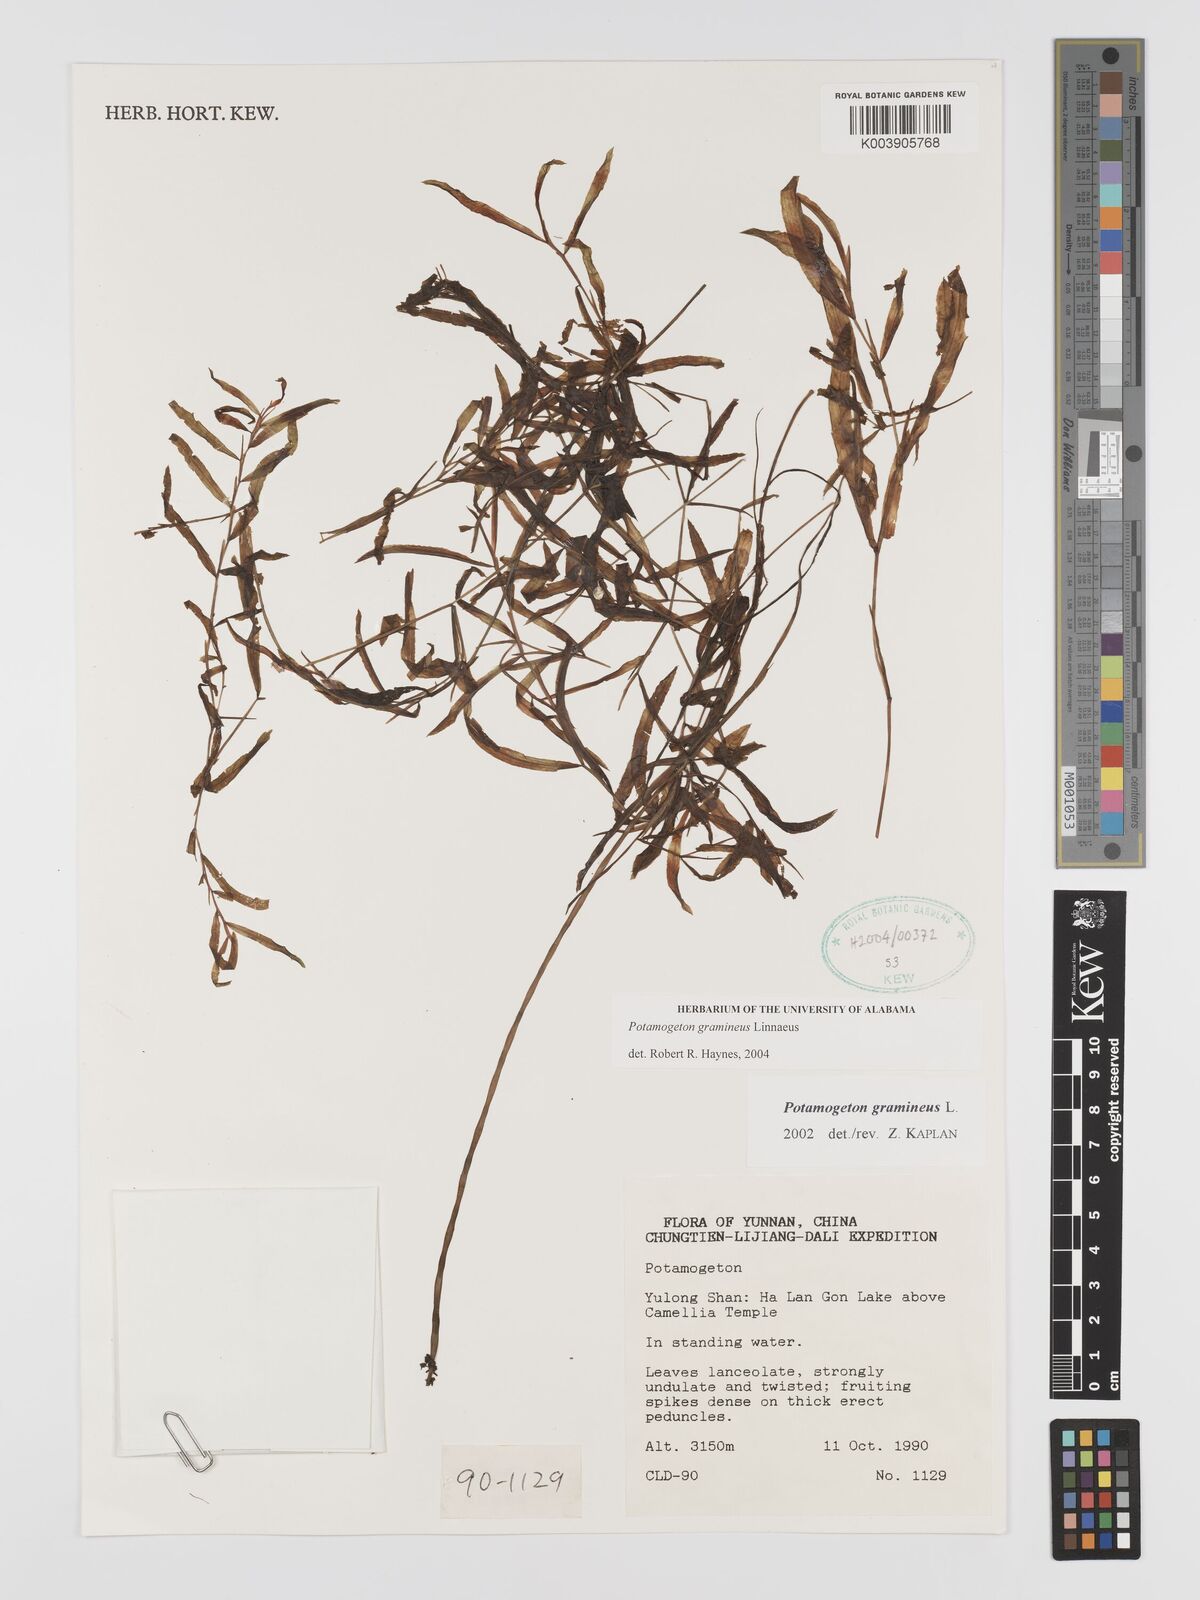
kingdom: Plantae
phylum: Tracheophyta
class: Liliopsida
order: Alismatales
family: Potamogetonaceae
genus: Potamogeton
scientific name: Potamogeton gramineus
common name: Various-leaved pondweed
